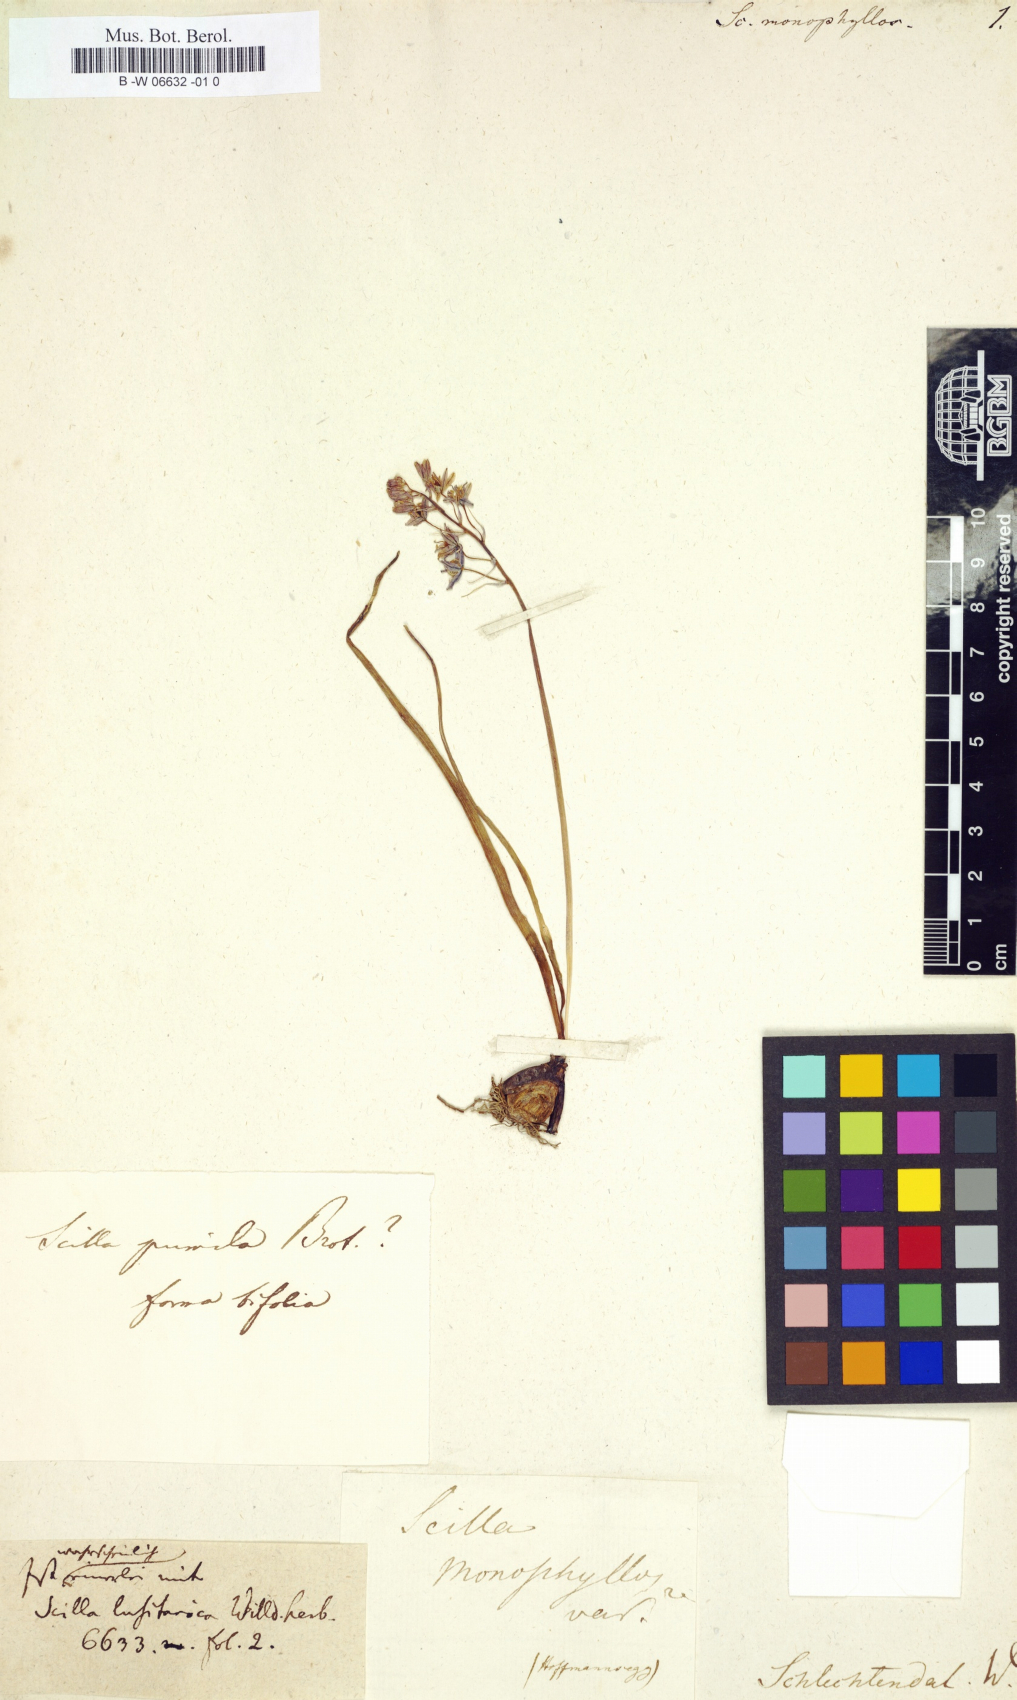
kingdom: Plantae
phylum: Tracheophyta
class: Liliopsida
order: Asparagales
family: Asparagaceae
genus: Scilla
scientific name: Scilla monophyllos
